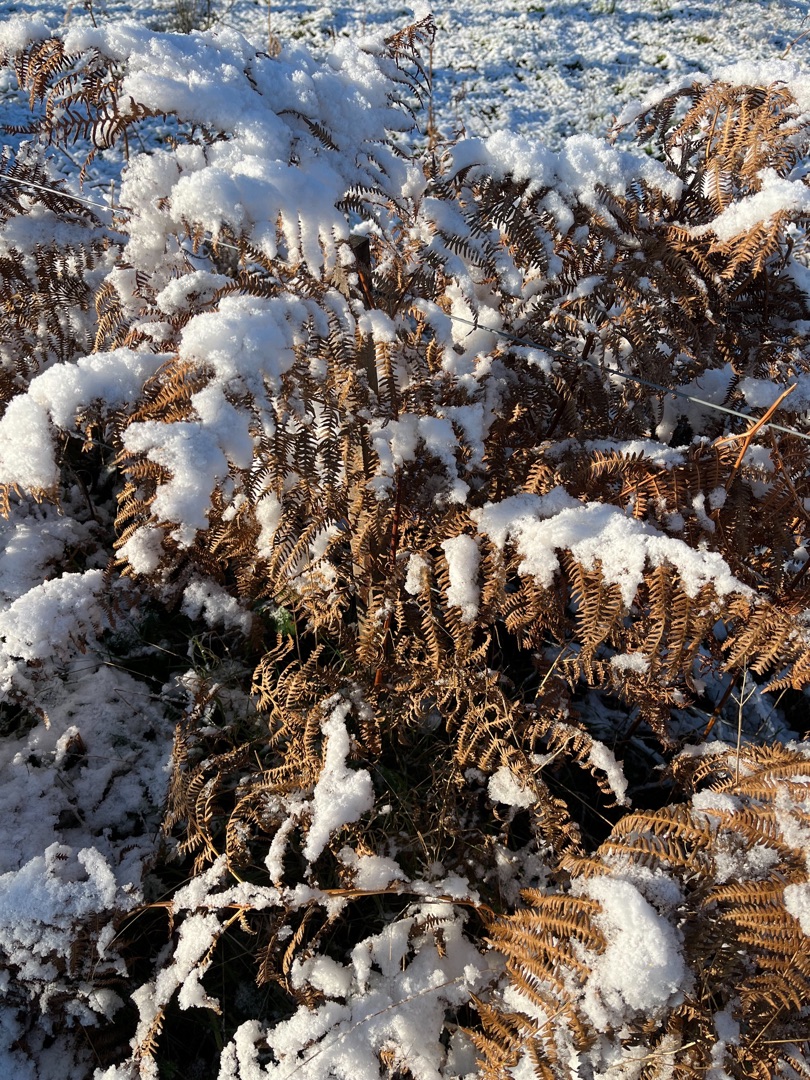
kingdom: Plantae
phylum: Tracheophyta
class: Polypodiopsida
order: Polypodiales
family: Dennstaedtiaceae
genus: Pteridium
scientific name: Pteridium aquilinum
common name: Ørnebregne
